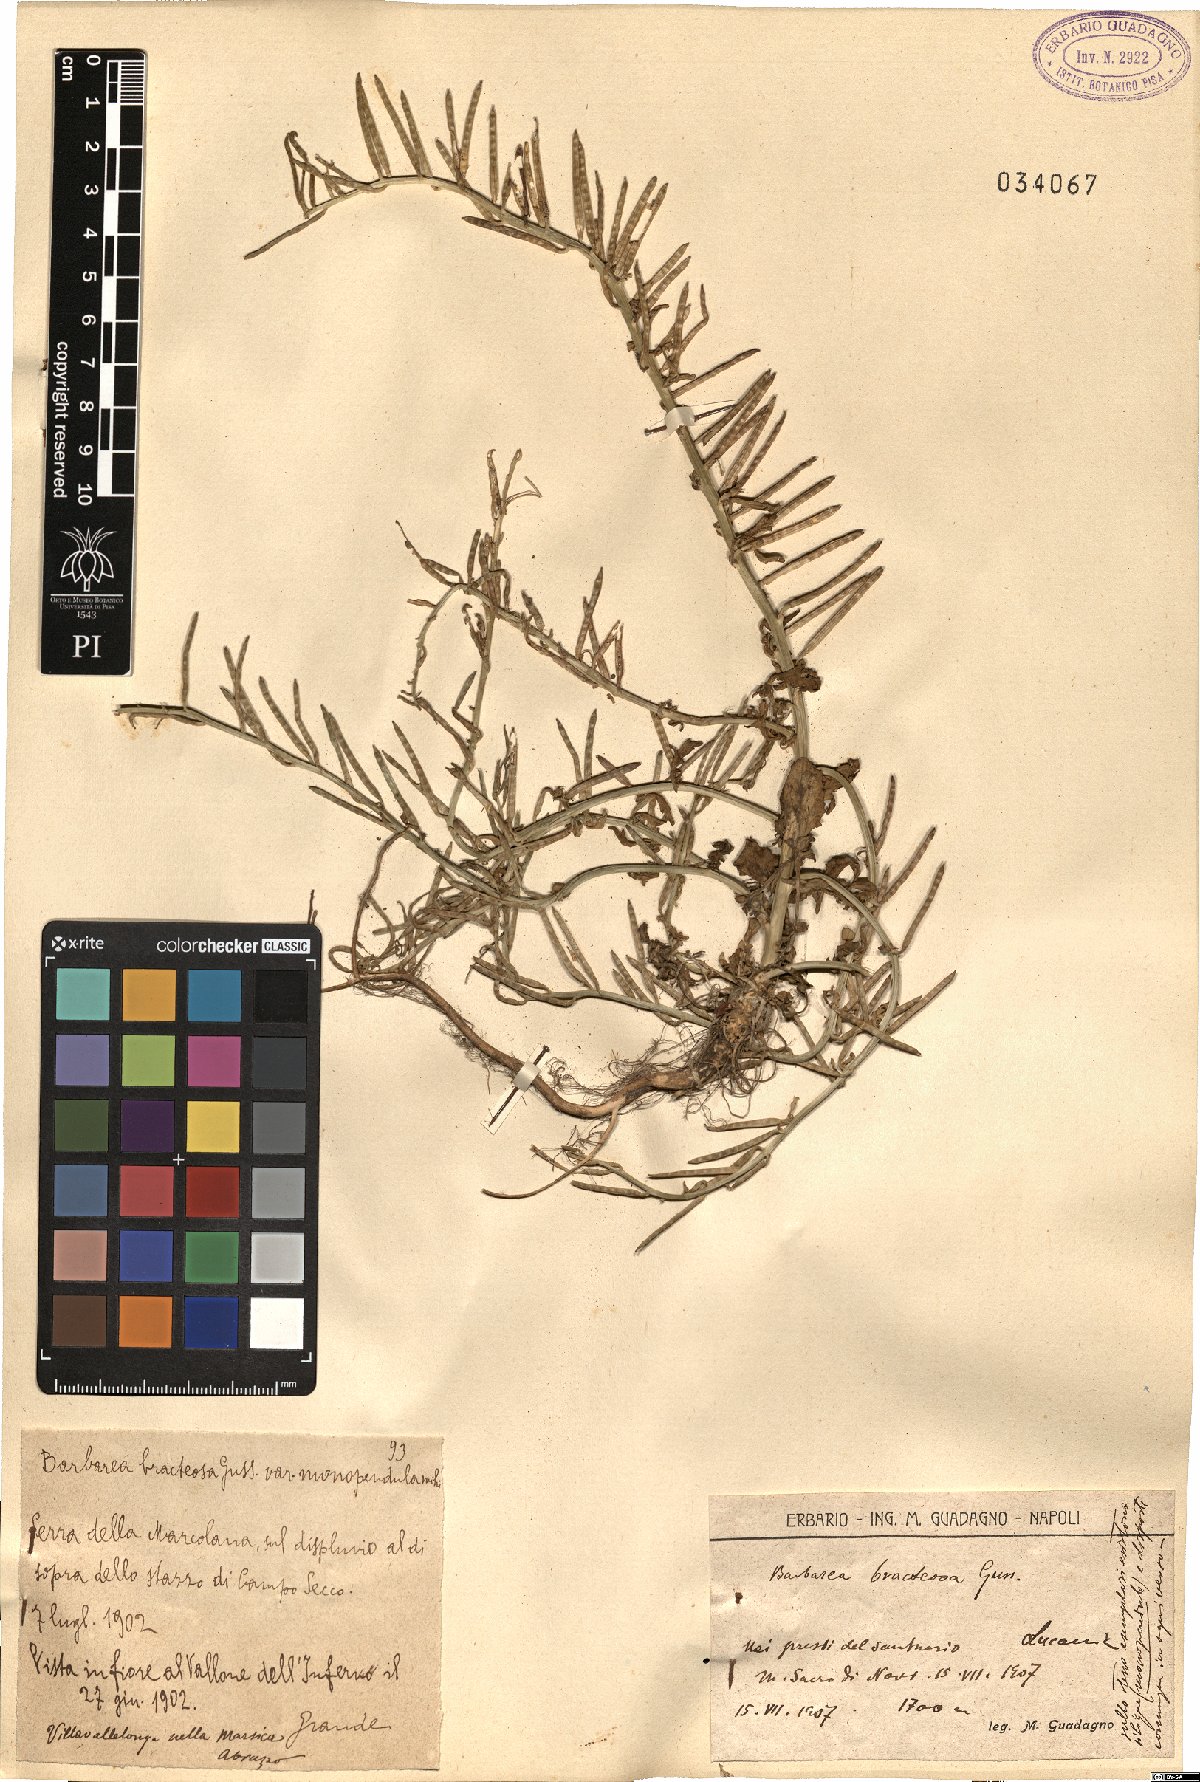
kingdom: Plantae
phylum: Tracheophyta
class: Magnoliopsida
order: Brassicales
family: Brassicaceae
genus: Barbarea
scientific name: Barbarea bracteosa
